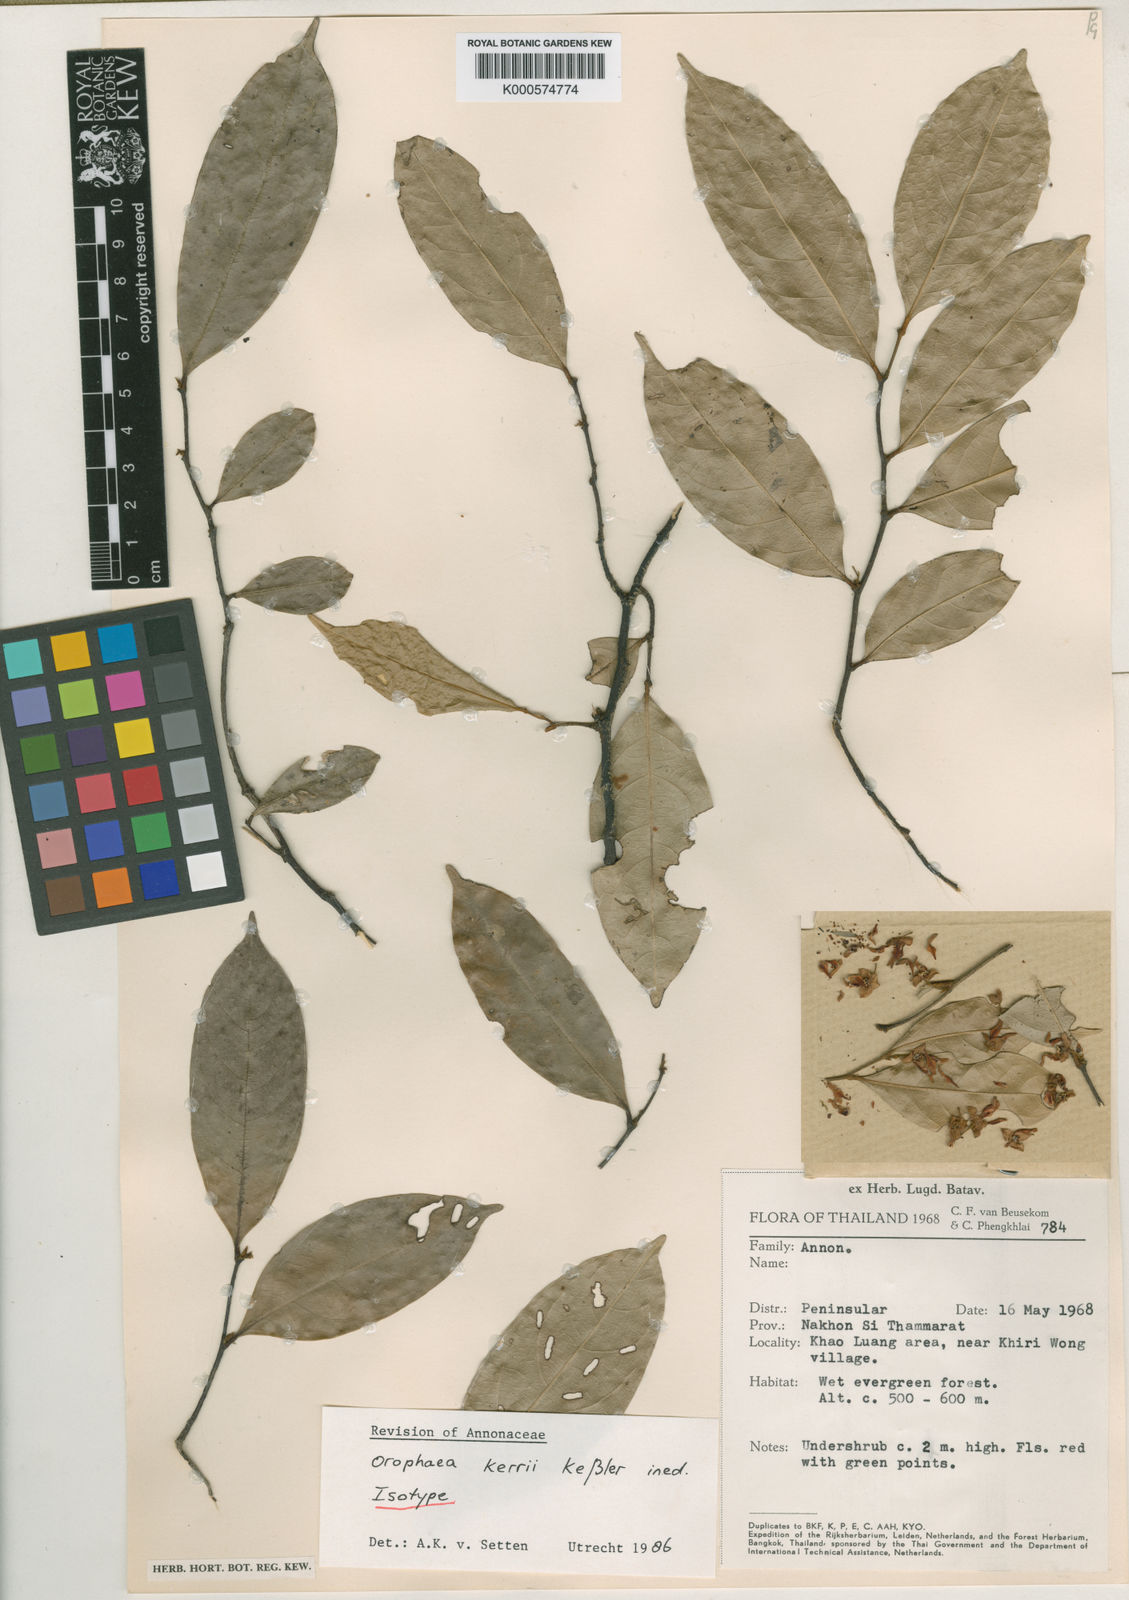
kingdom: Plantae
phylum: Tracheophyta
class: Magnoliopsida
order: Magnoliales
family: Annonaceae
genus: Orophea
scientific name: Orophea kerrii
